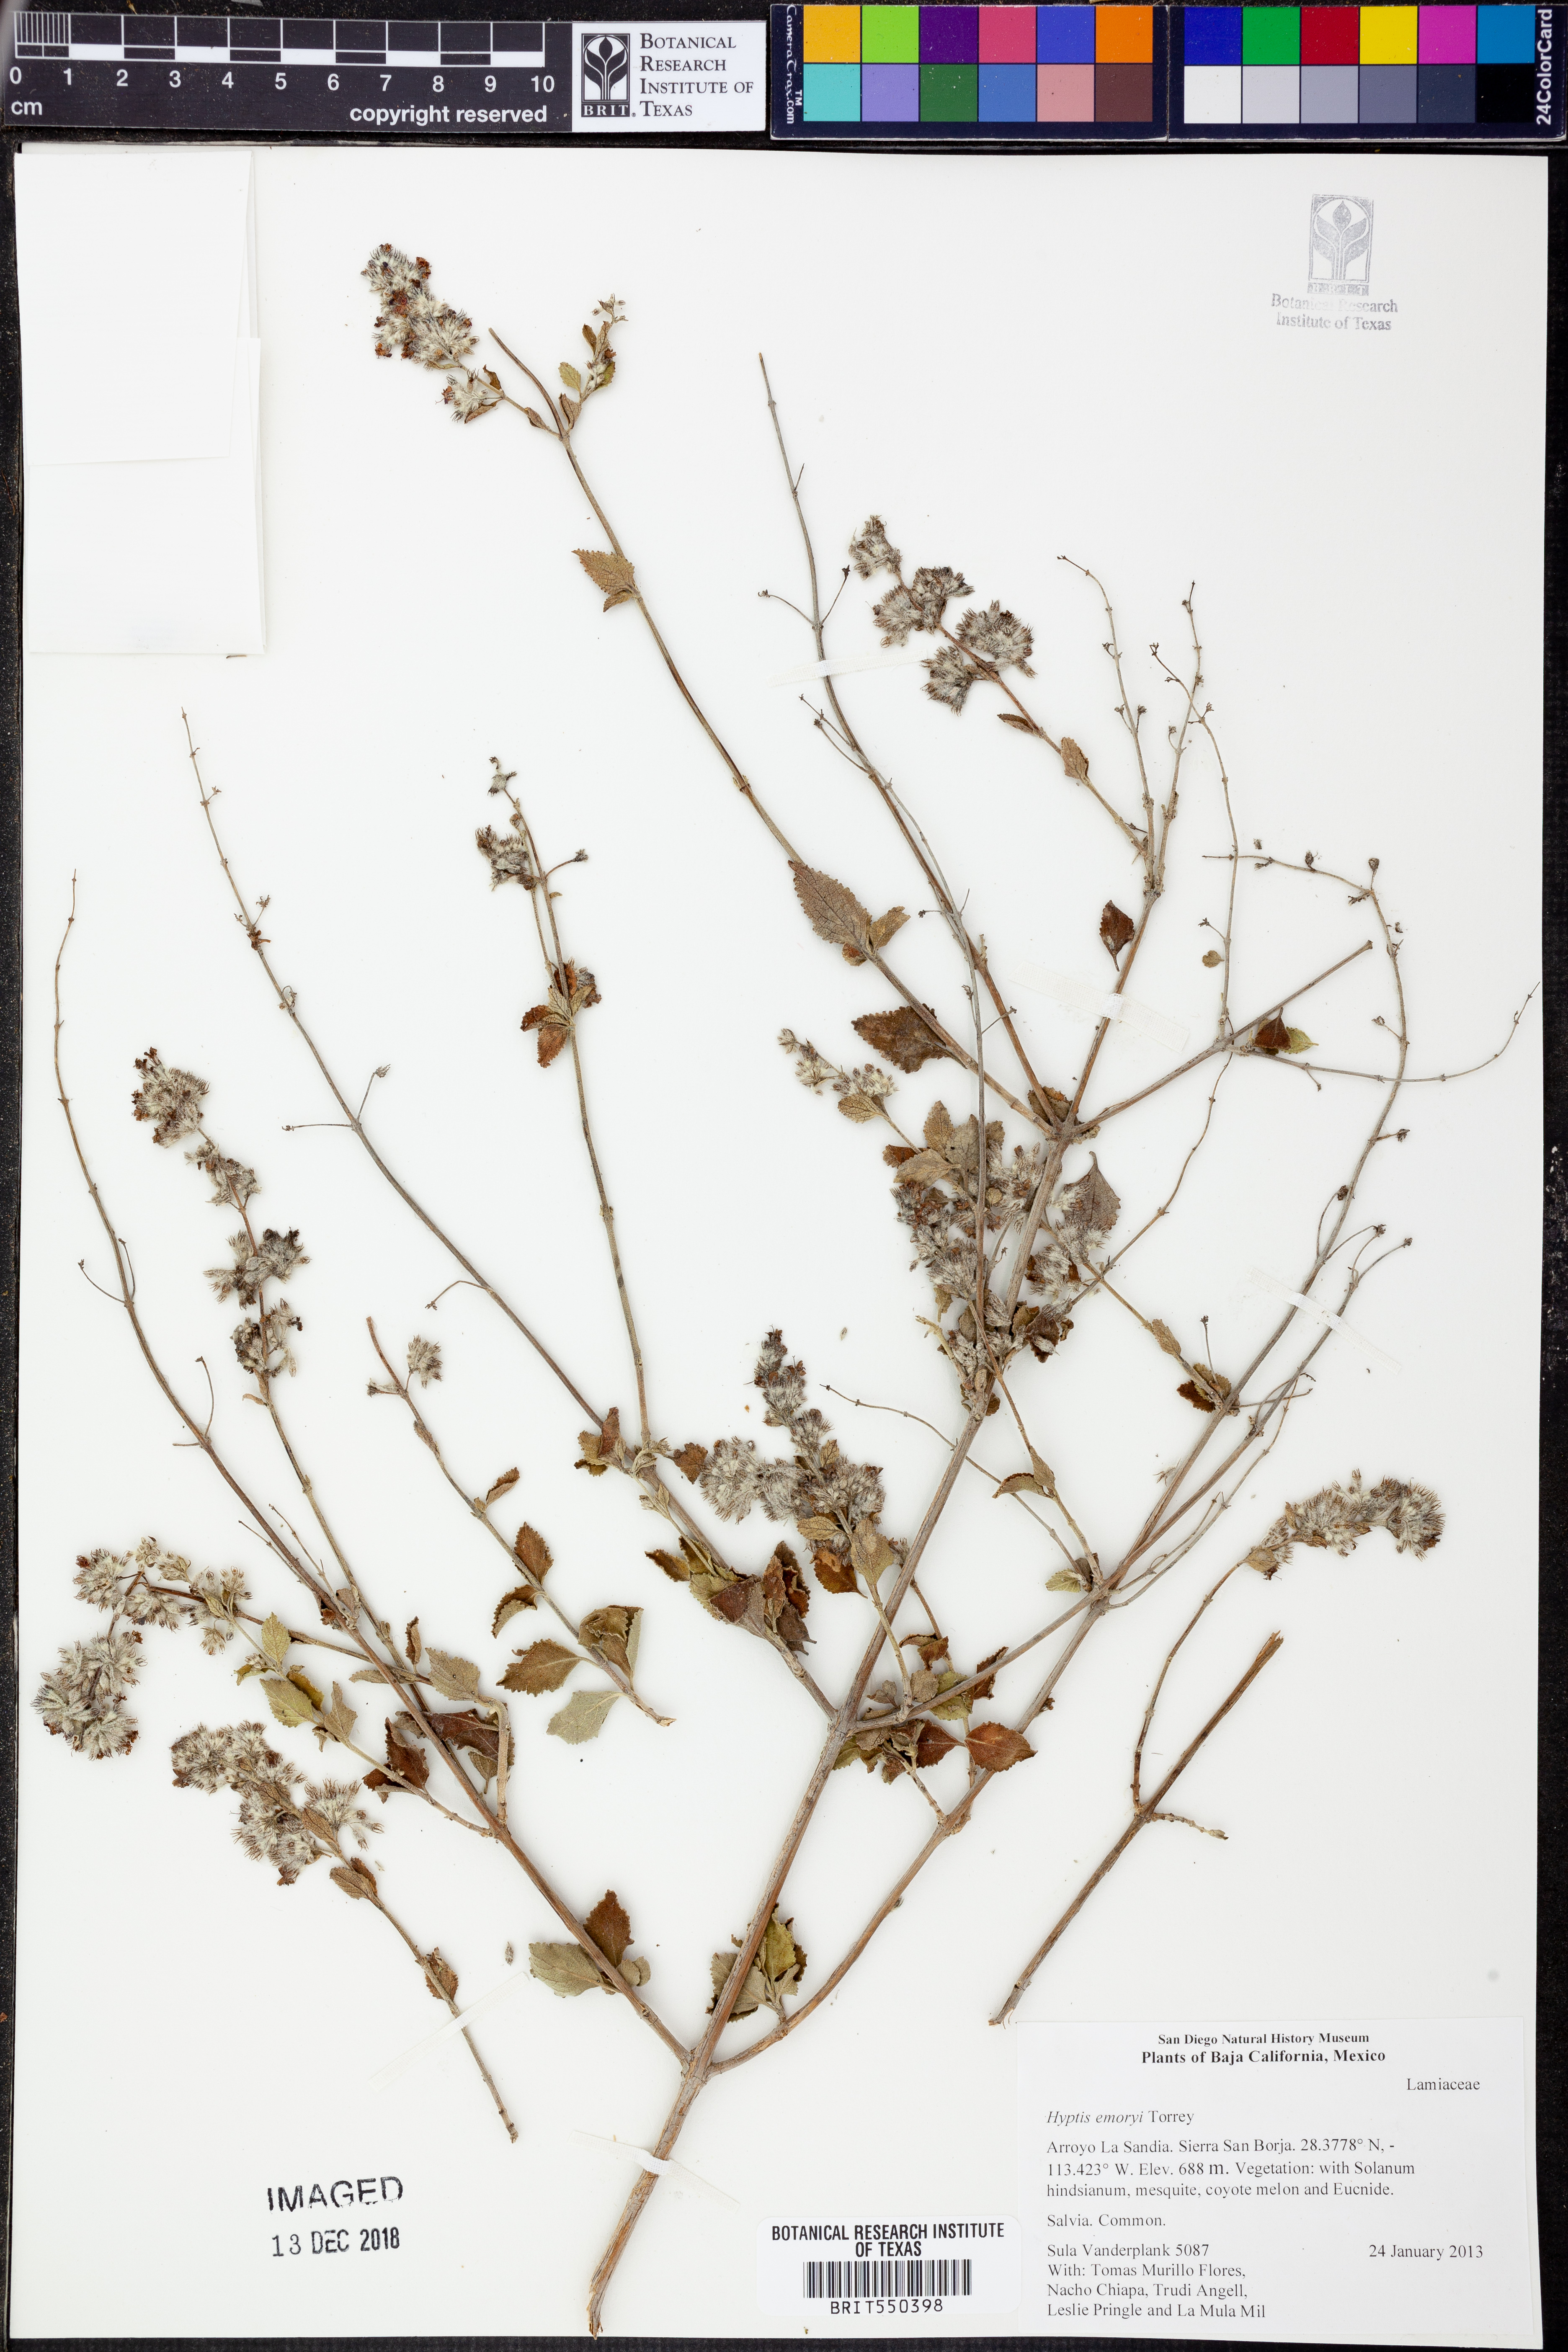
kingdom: Plantae
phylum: Tracheophyta
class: Magnoliopsida
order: Lamiales
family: Lamiaceae
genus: Condea
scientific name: Condea emoryi
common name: Chia
